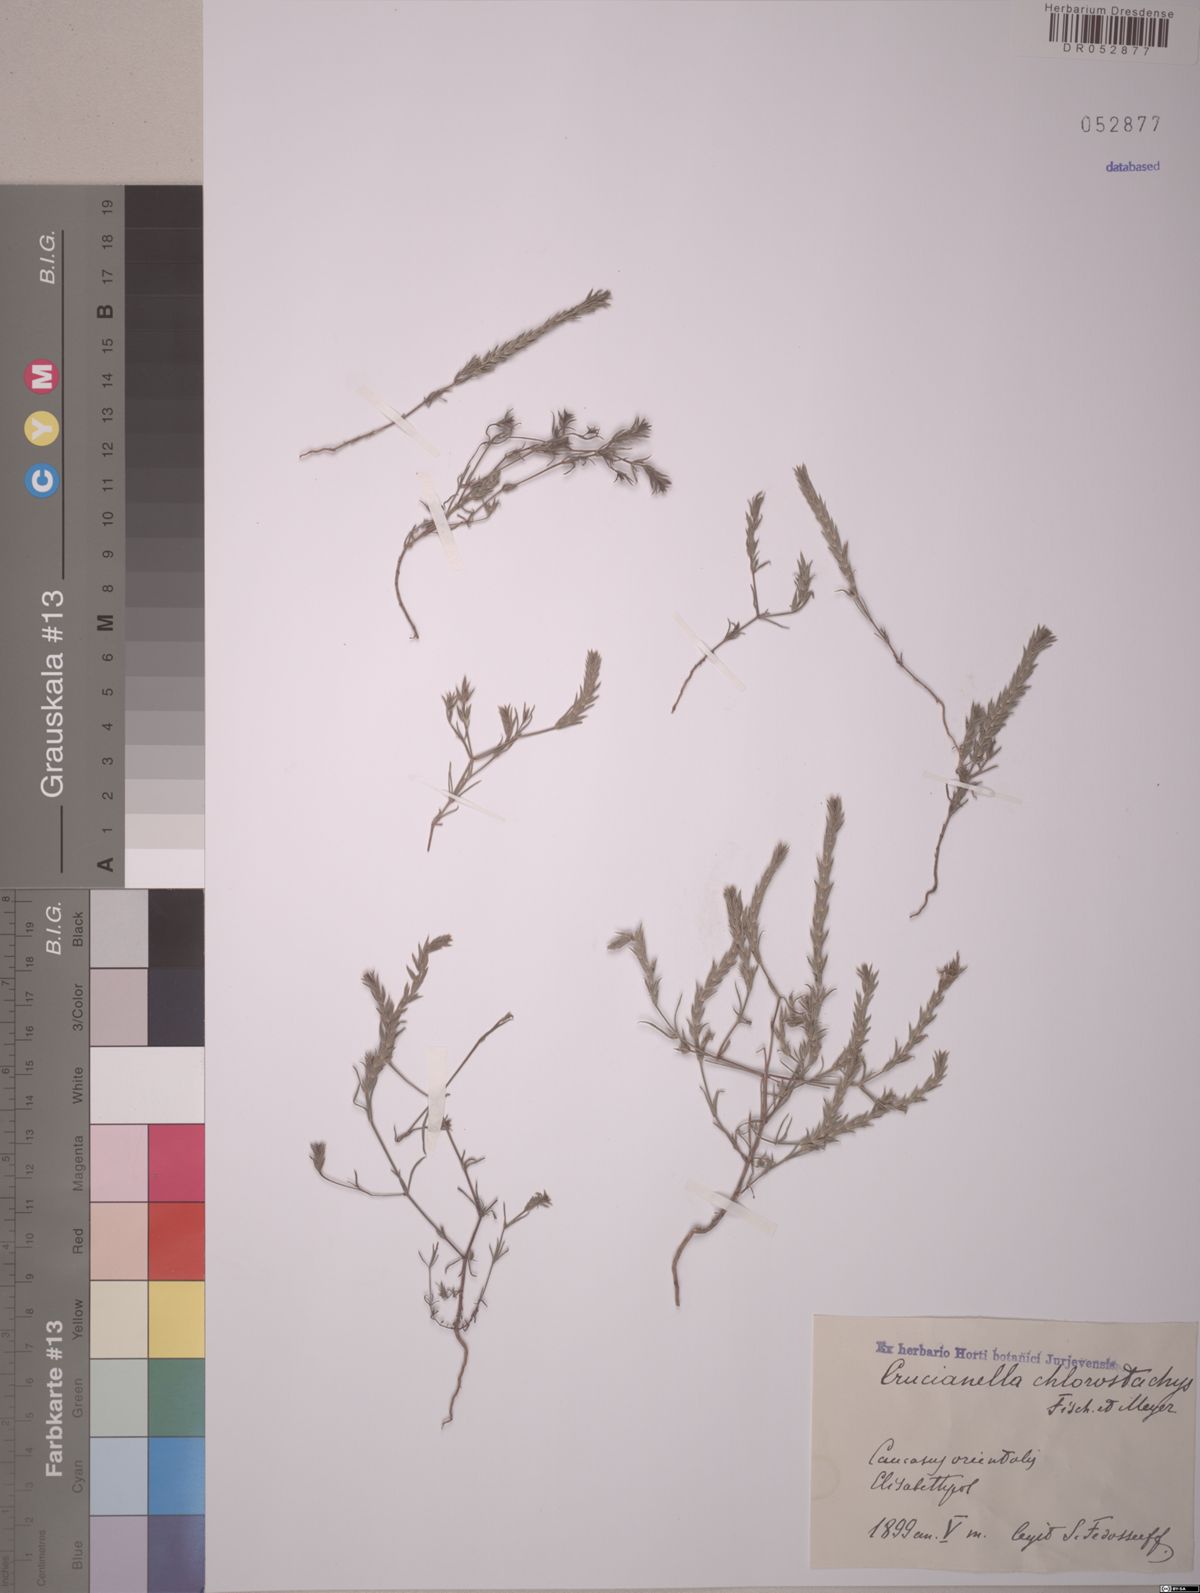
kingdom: Plantae
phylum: Tracheophyta
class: Magnoliopsida
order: Gentianales
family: Rubiaceae
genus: Crucianella
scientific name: Crucianella chlorostachys
